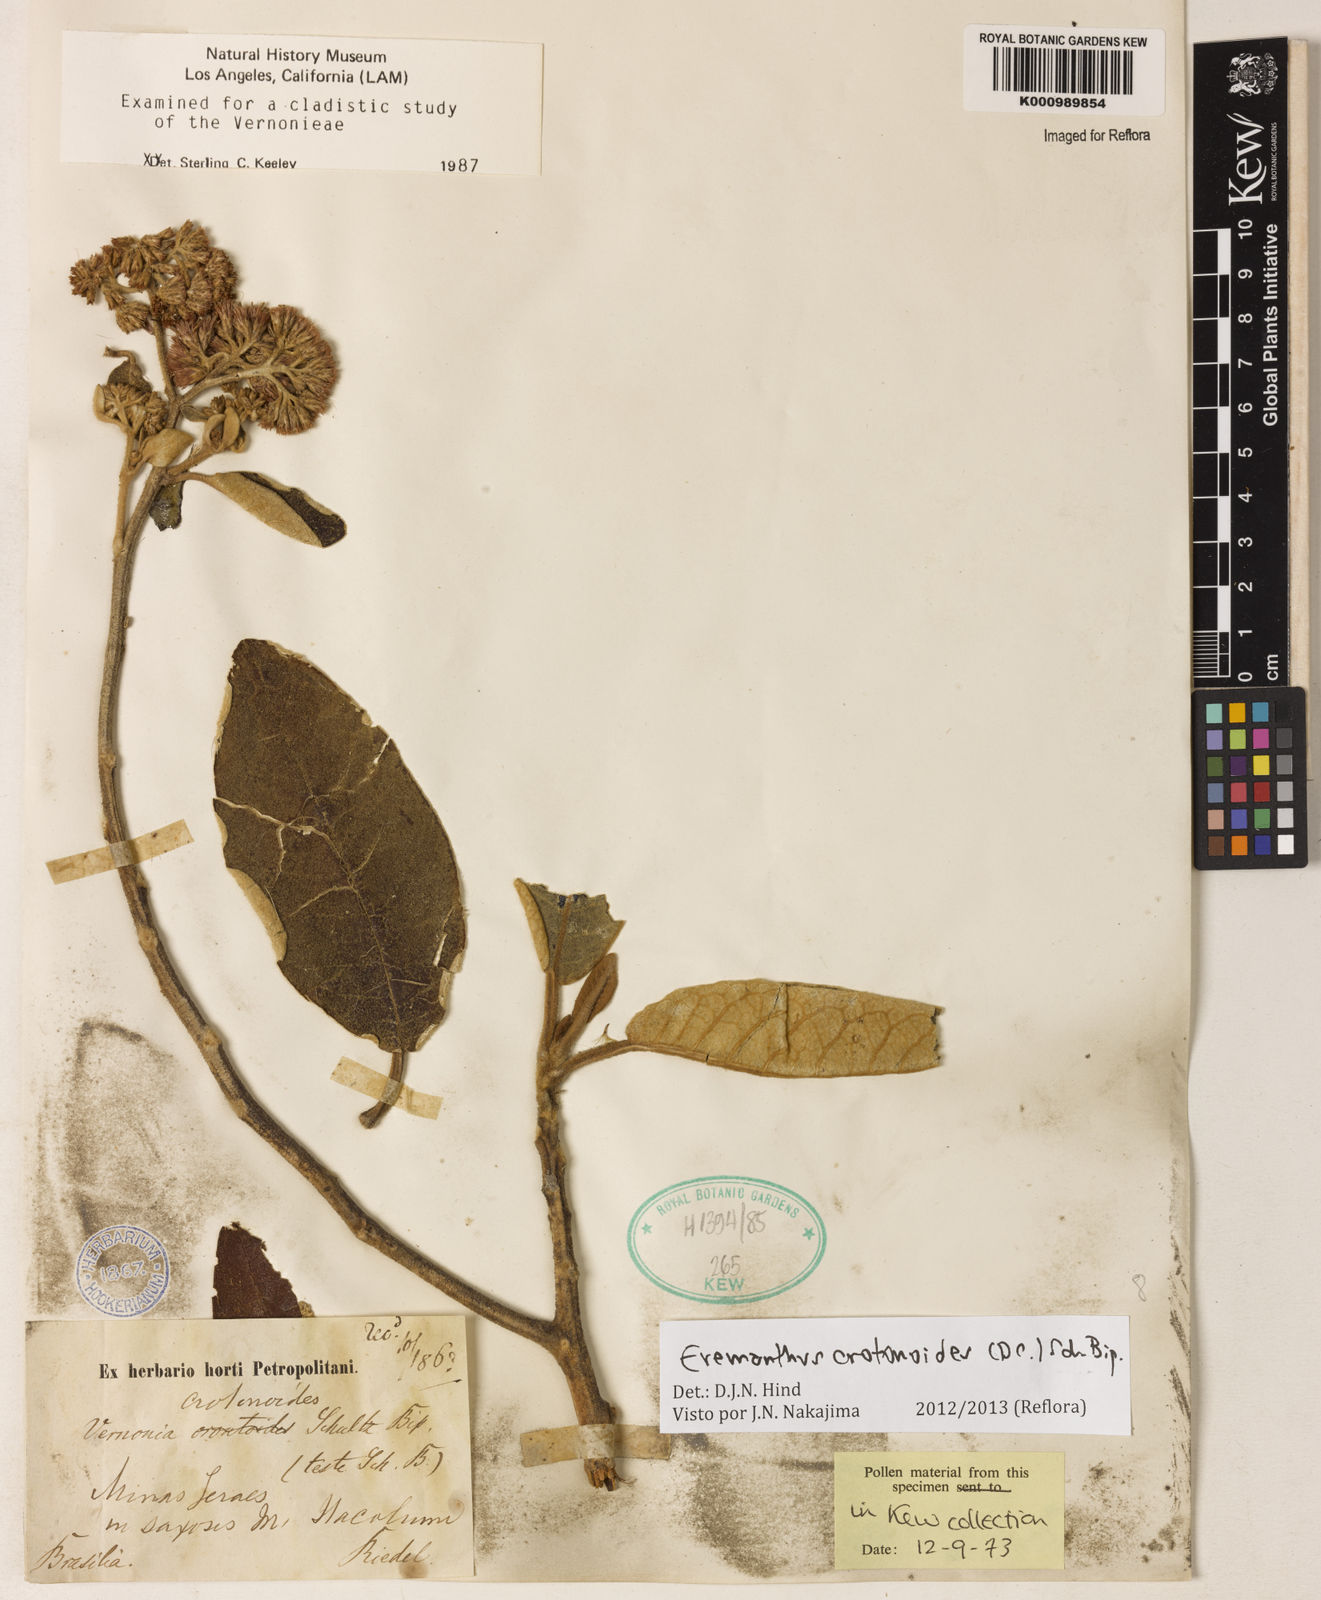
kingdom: Plantae
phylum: Tracheophyta
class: Magnoliopsida
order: Asterales
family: Asteraceae
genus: Eremanthus
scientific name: Eremanthus crotonoides
